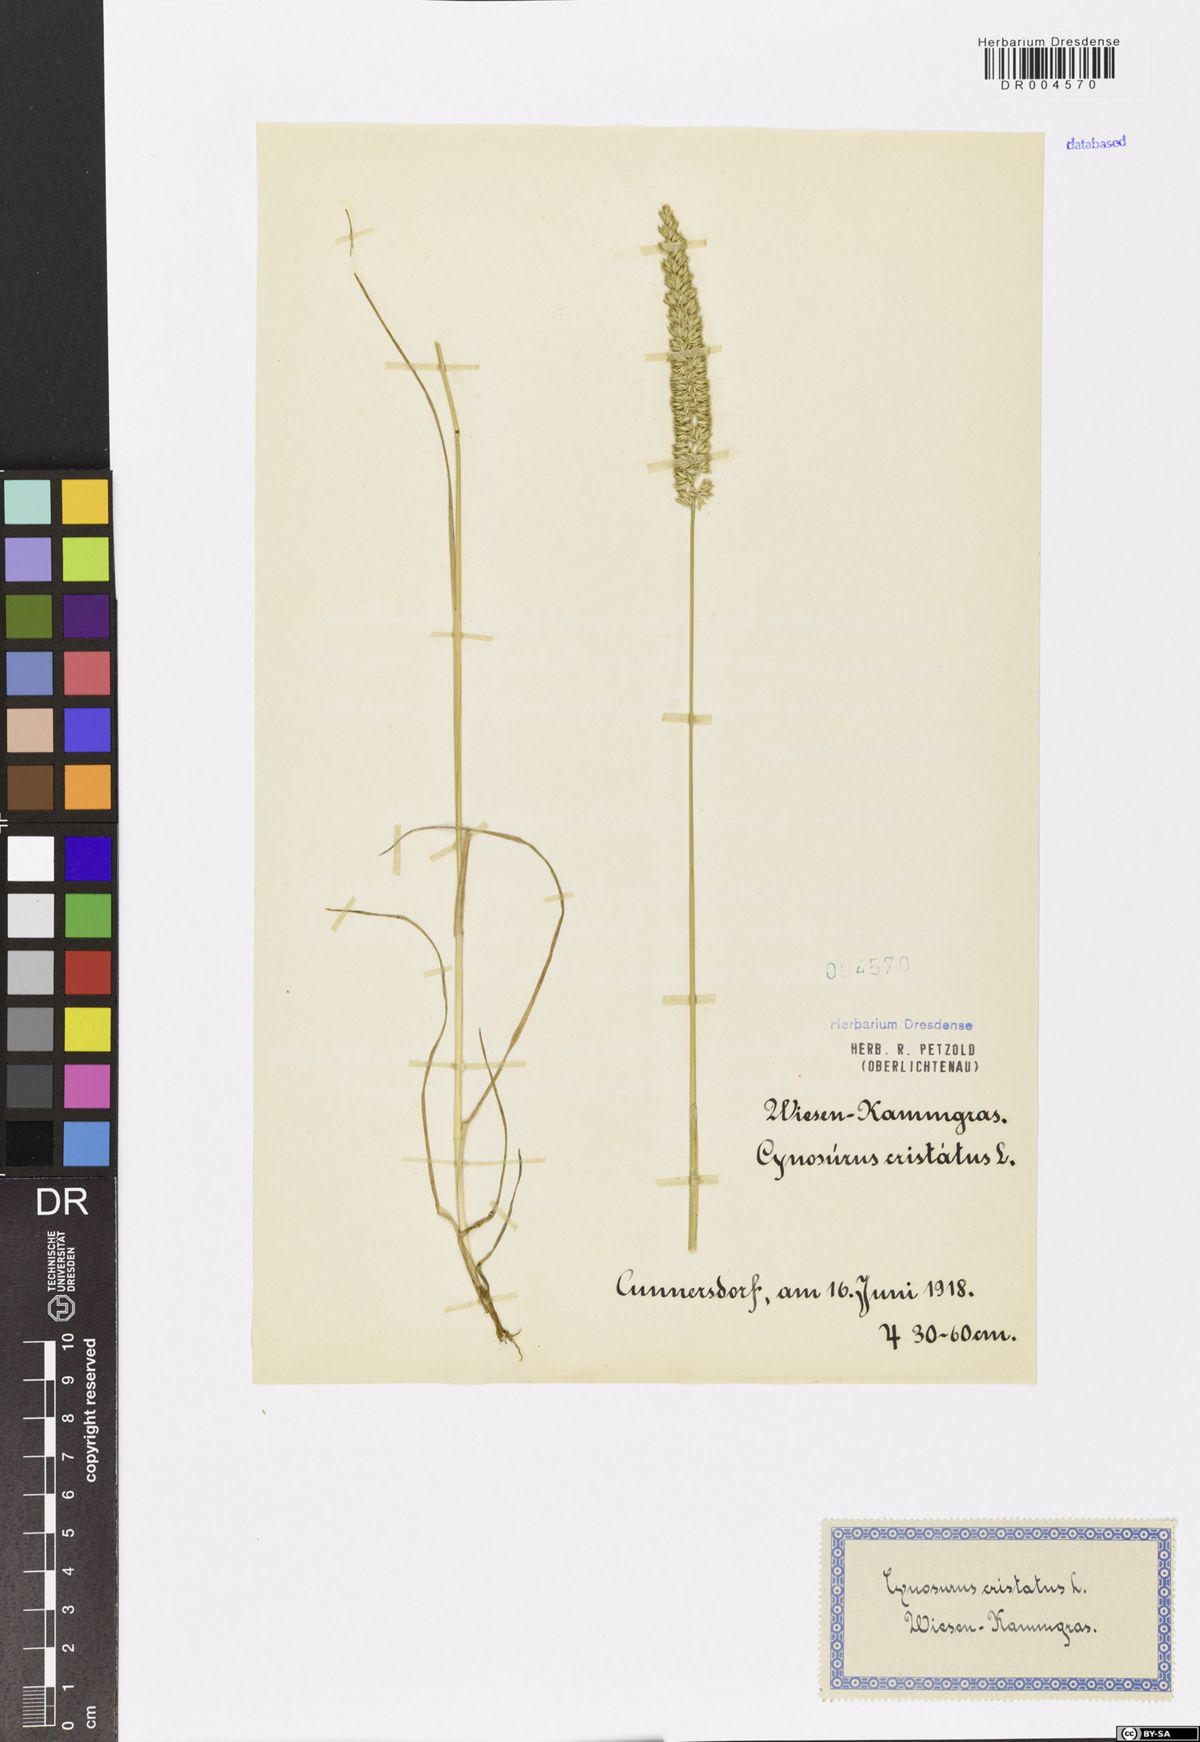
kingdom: Plantae
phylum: Tracheophyta
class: Liliopsida
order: Poales
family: Poaceae
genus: Cynosurus
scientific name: Cynosurus cristatus
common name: Crested dog's-tail
